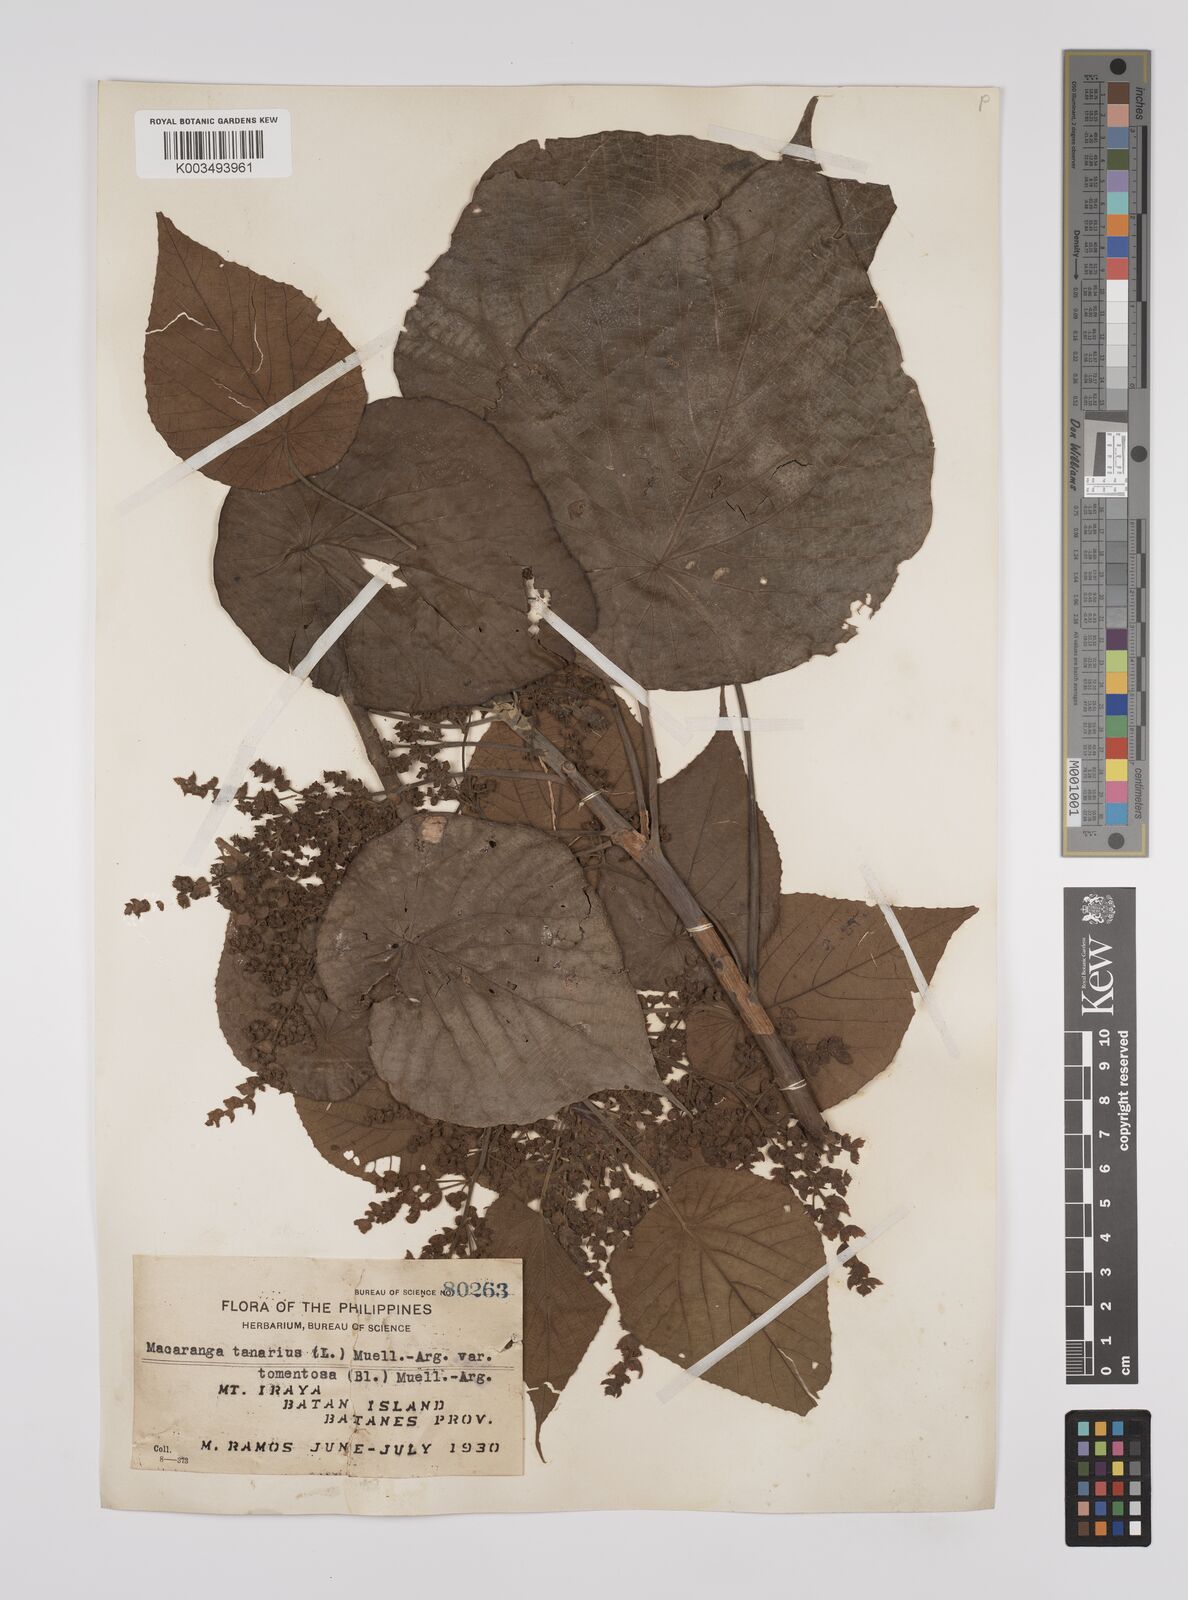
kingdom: Plantae
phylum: Tracheophyta
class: Magnoliopsida
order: Malpighiales
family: Euphorbiaceae
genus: Macaranga
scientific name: Macaranga tanarius
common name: Parasol leaf tree
